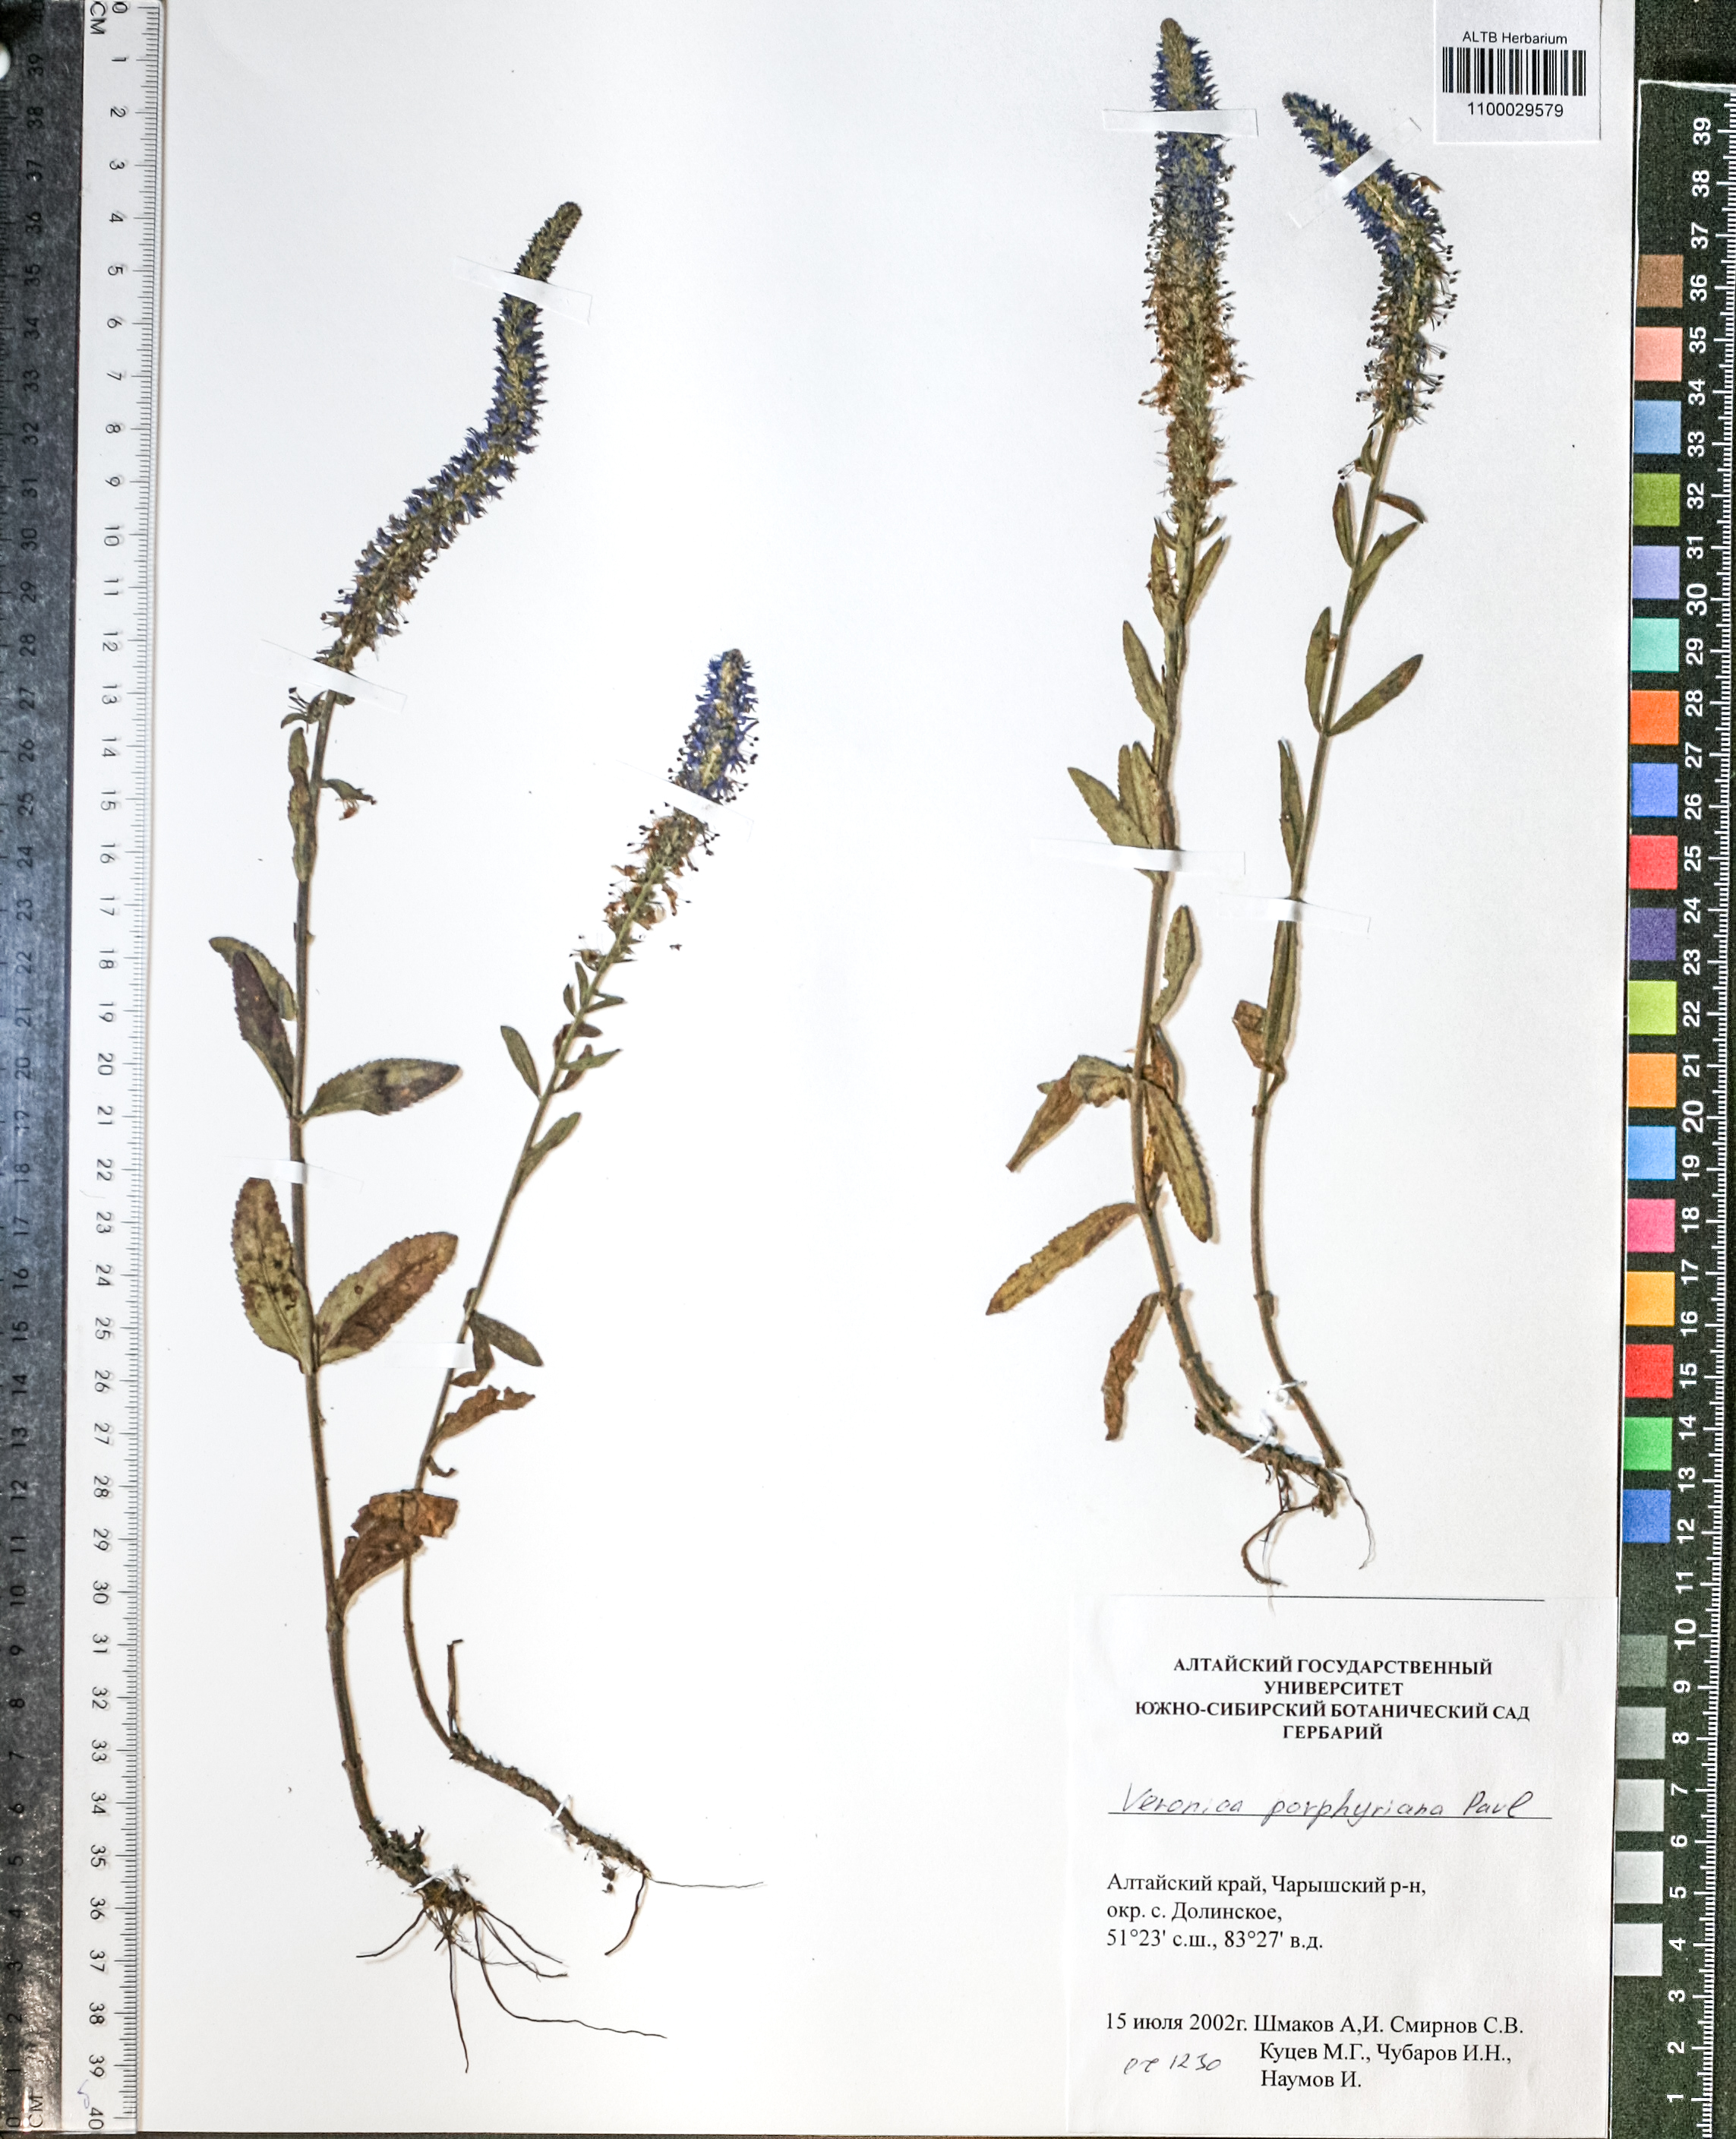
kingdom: Plantae
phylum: Tracheophyta
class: Magnoliopsida
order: Lamiales
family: Plantaginaceae
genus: Veronica
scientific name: Veronica porphyriana
